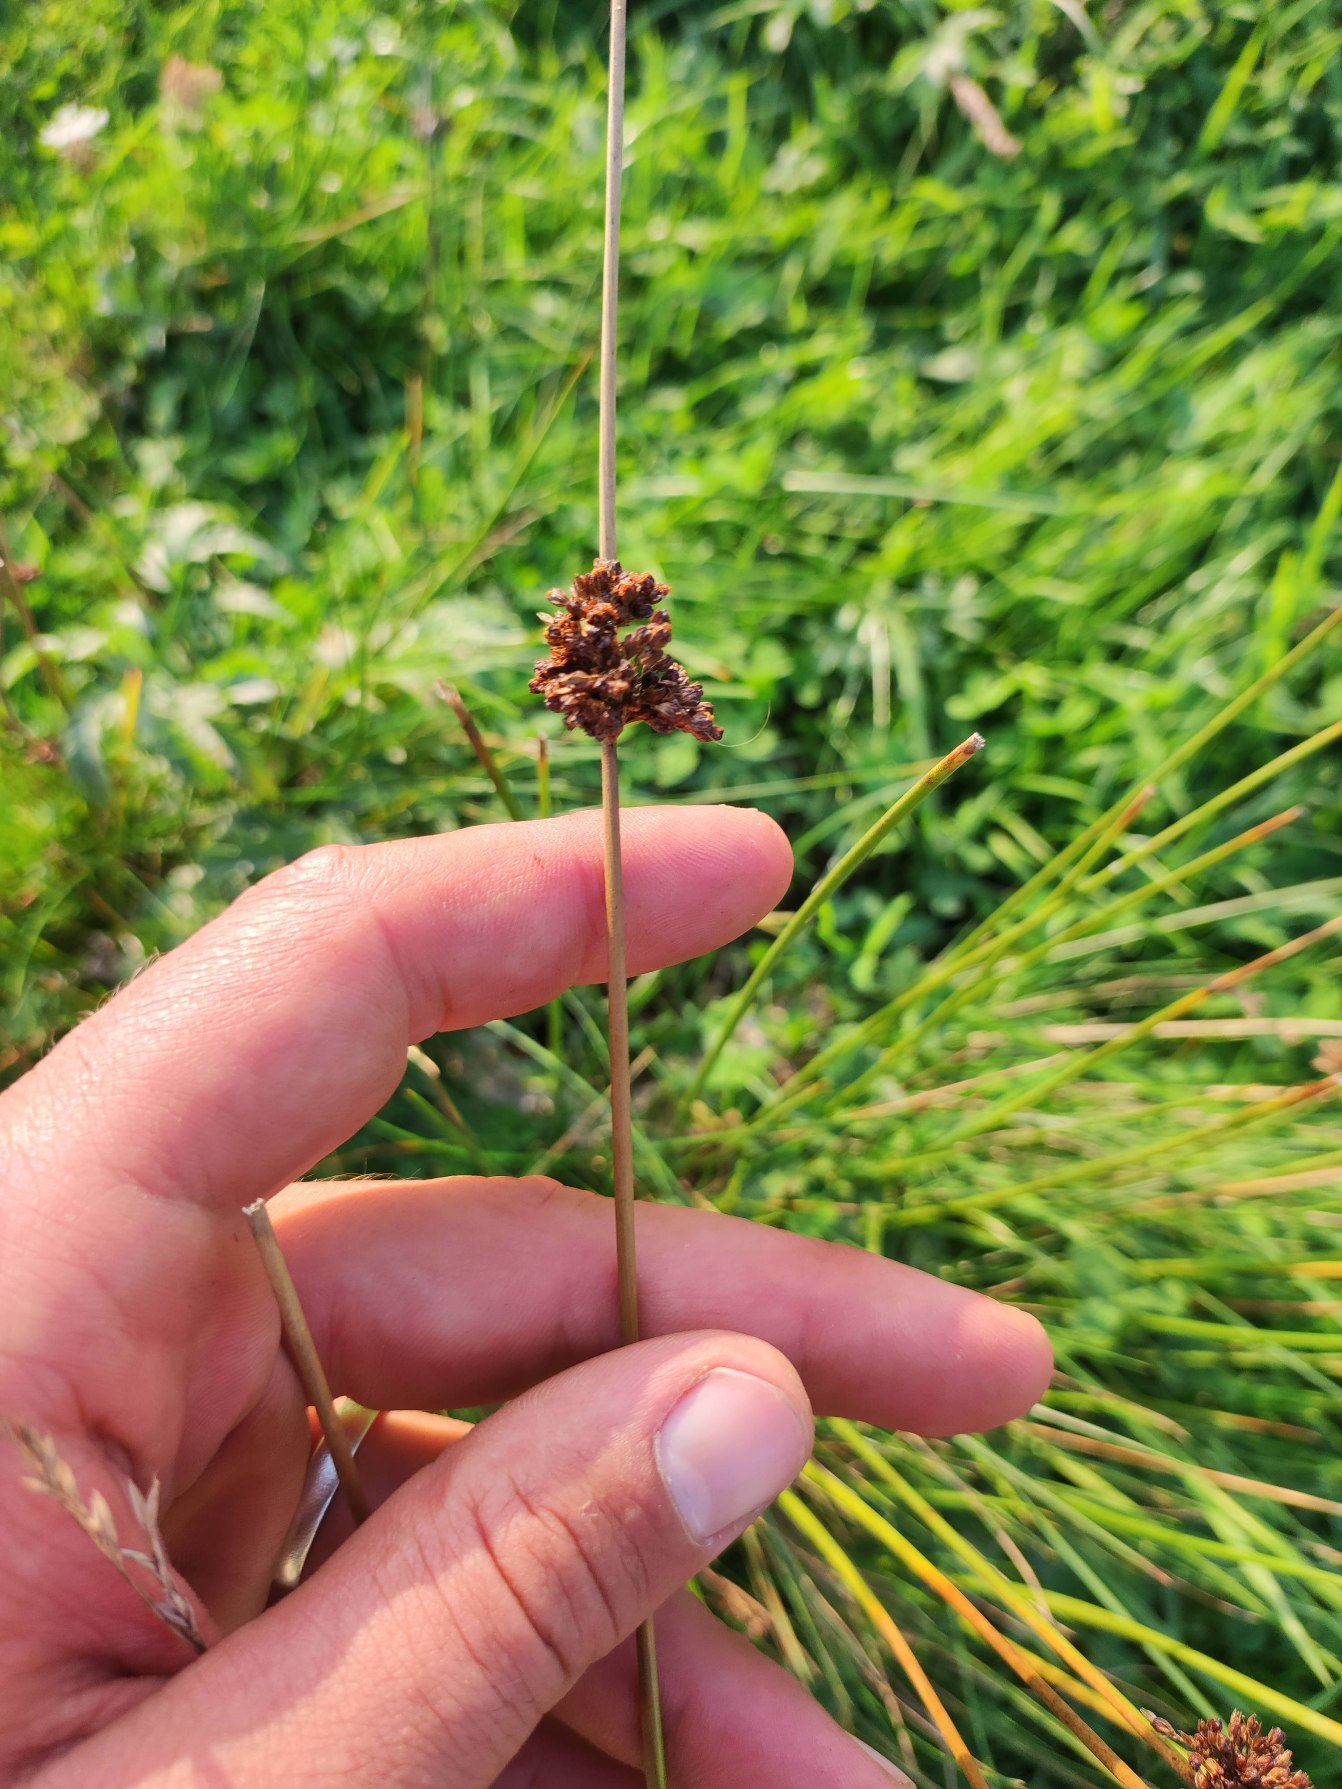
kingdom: Plantae
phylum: Tracheophyta
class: Liliopsida
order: Poales
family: Juncaceae
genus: Juncus
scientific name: Juncus effusus
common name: Lyse-siv
